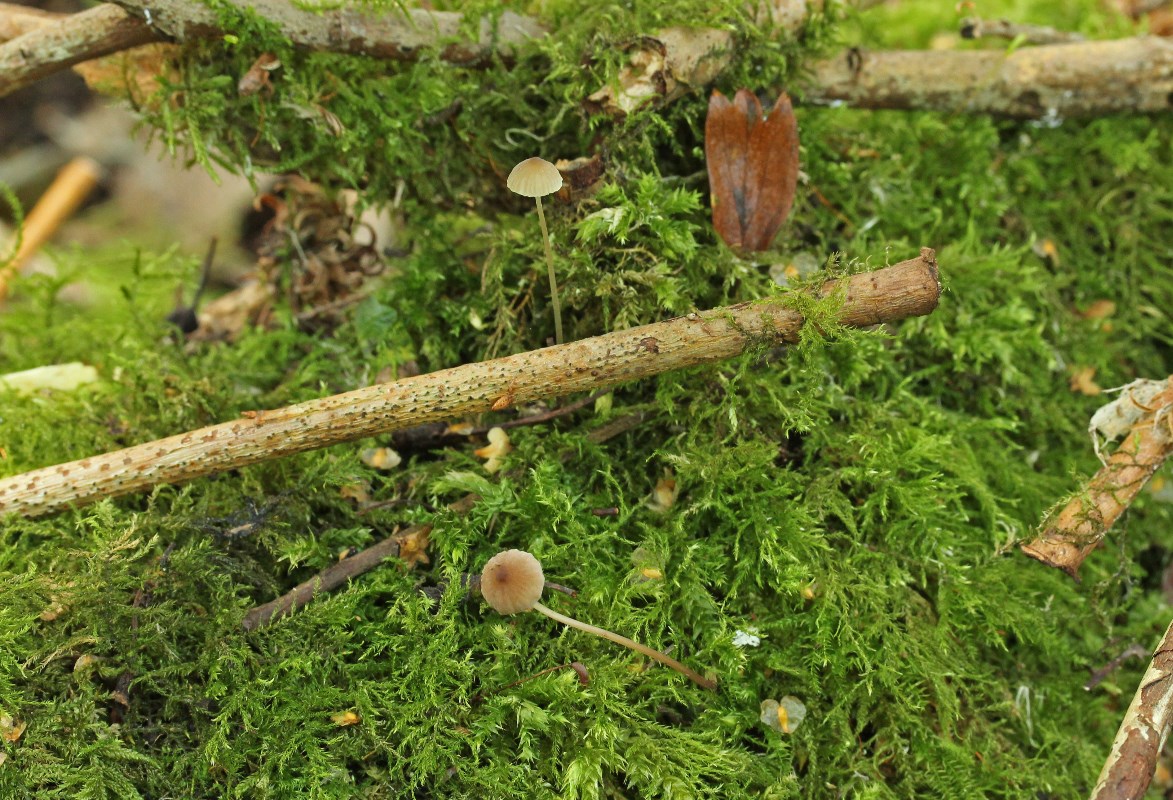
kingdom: Fungi
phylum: Basidiomycota
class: Agaricomycetes
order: Agaricales
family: Porotheleaceae
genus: Phloeomana
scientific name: Phloeomana hiemalis
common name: sen huesvamp
